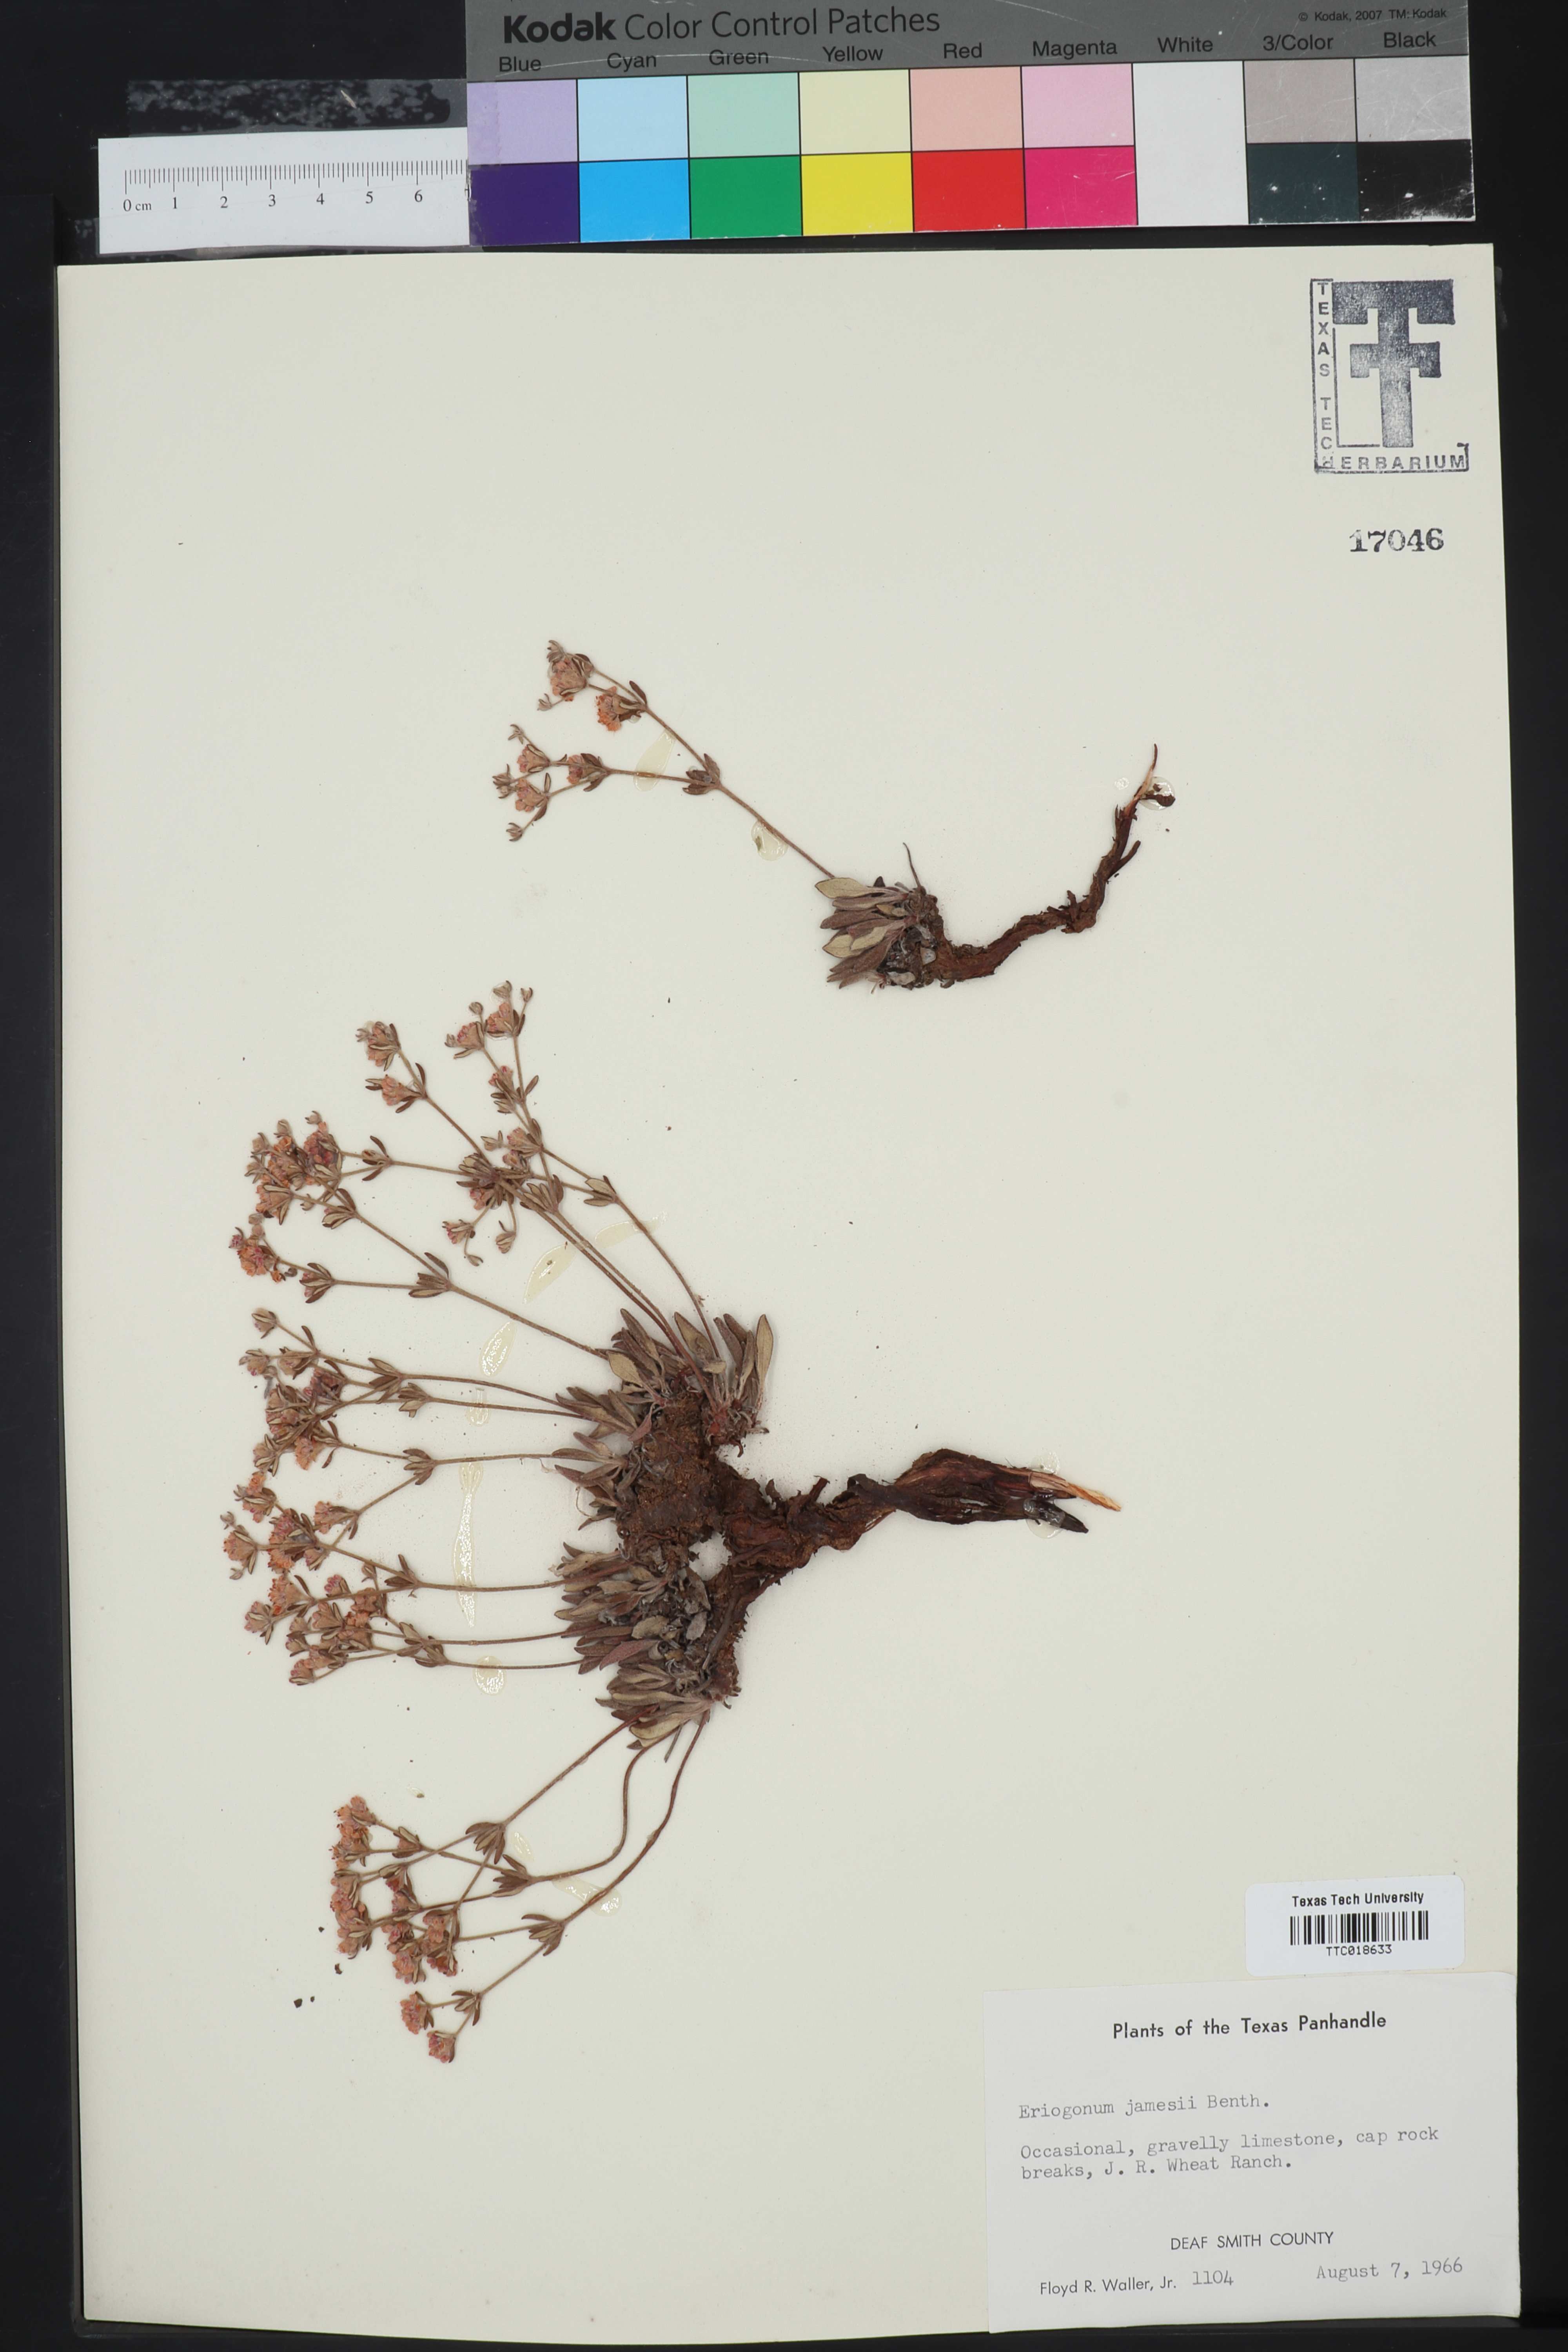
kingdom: Plantae
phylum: Tracheophyta
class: Magnoliopsida
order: Caryophyllales
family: Polygonaceae
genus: Eriogonum
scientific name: Eriogonum jamesii
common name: Antelope-sage
